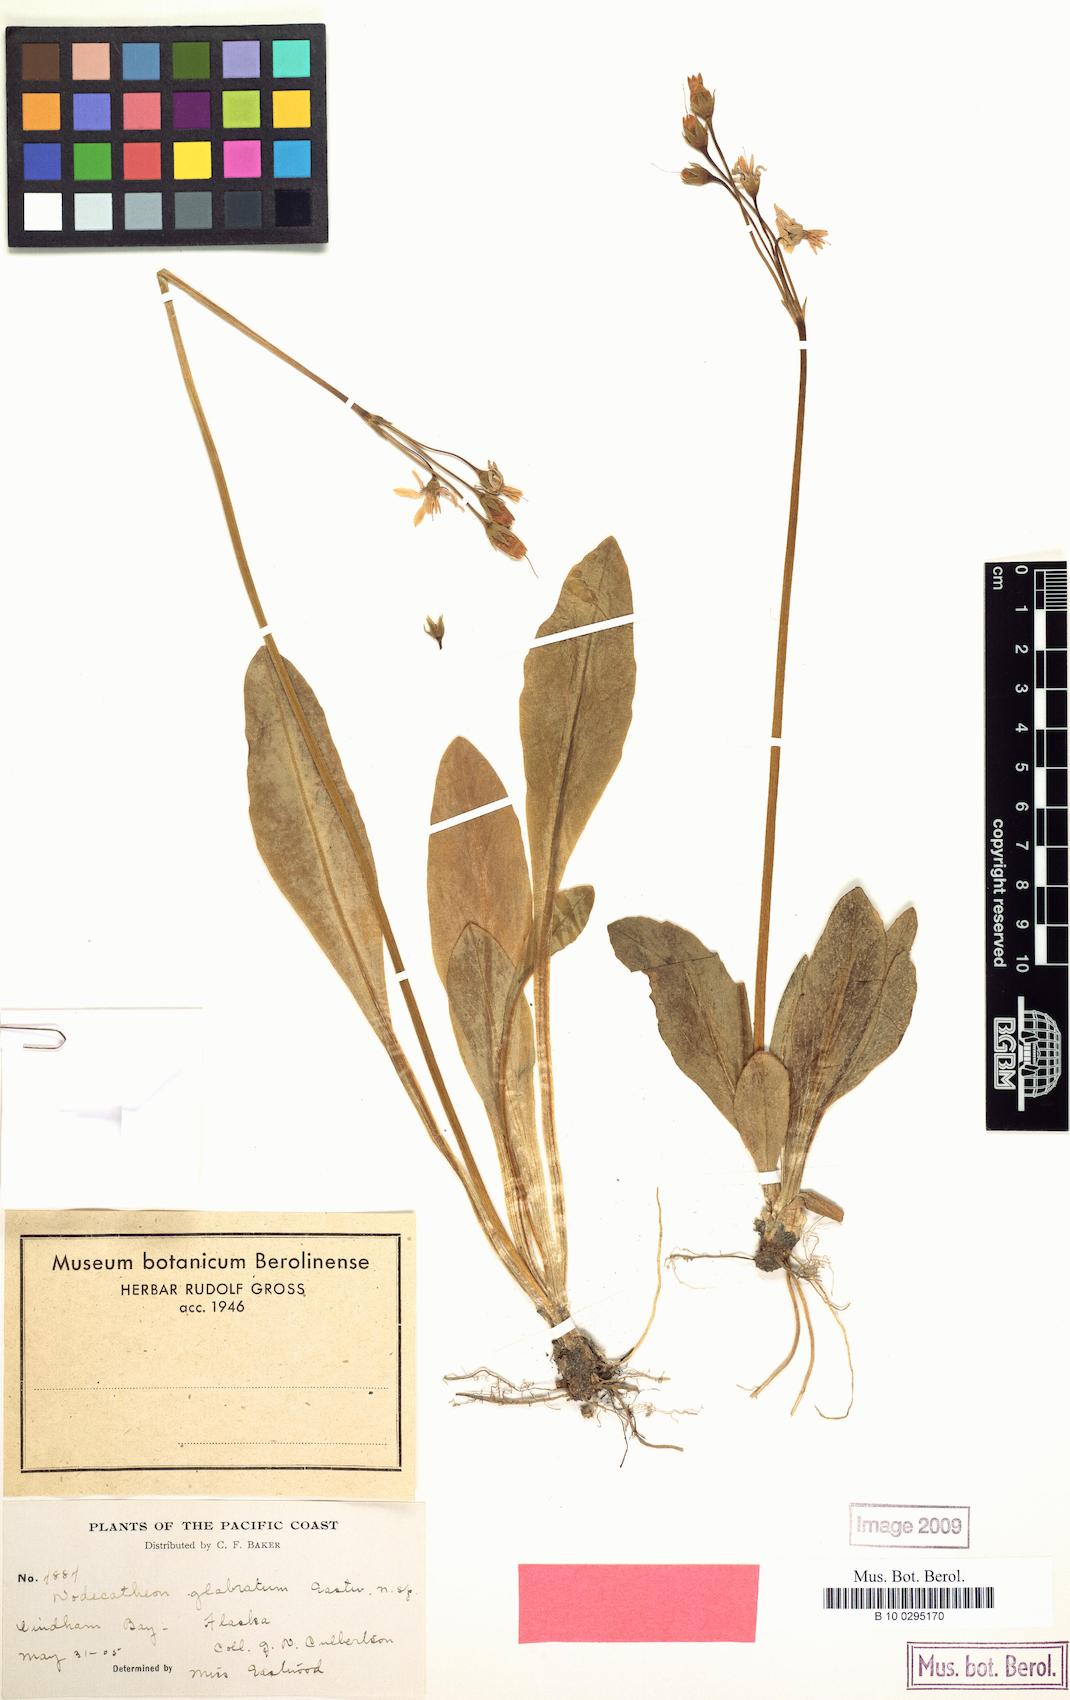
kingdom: Plantae
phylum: Tracheophyta
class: Magnoliopsida
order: Ericales
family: Primulaceae
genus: Dodecatheon
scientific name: Dodecatheon
